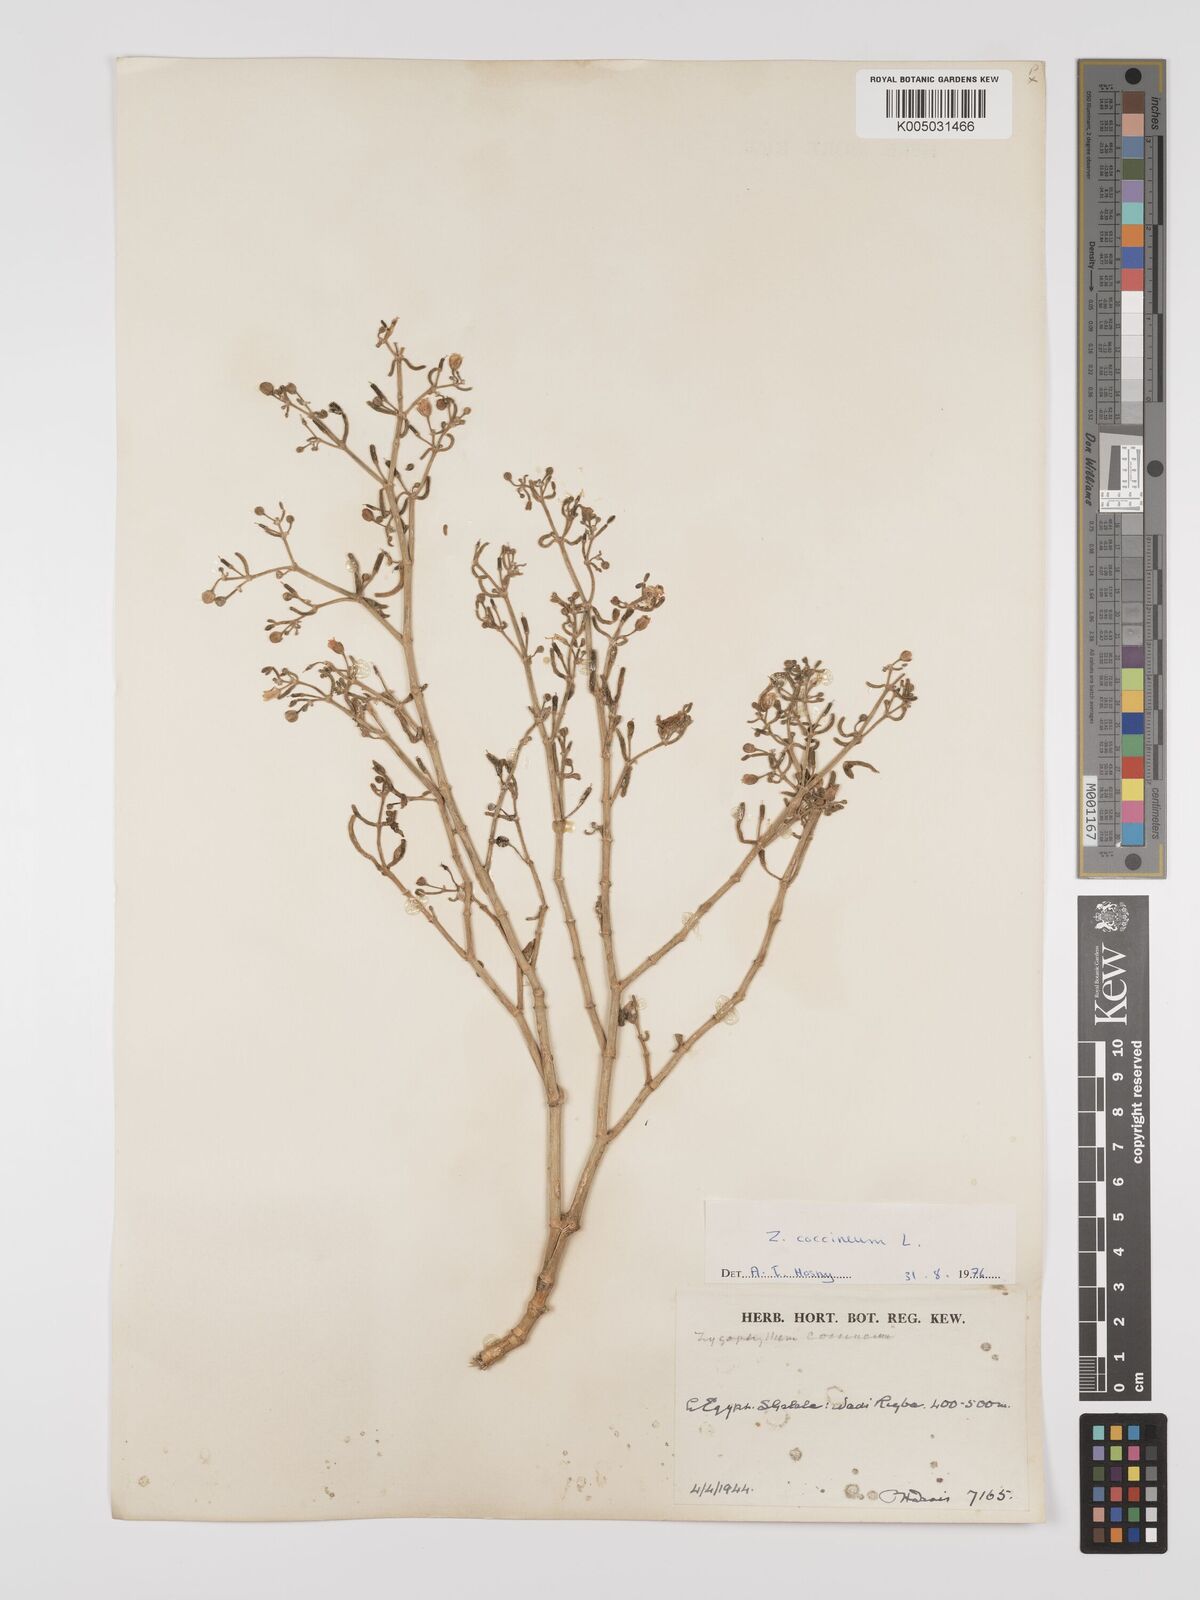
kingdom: Plantae
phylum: Tracheophyta
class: Magnoliopsida
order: Zygophyllales
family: Zygophyllaceae
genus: Tetraena
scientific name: Tetraena coccinea
